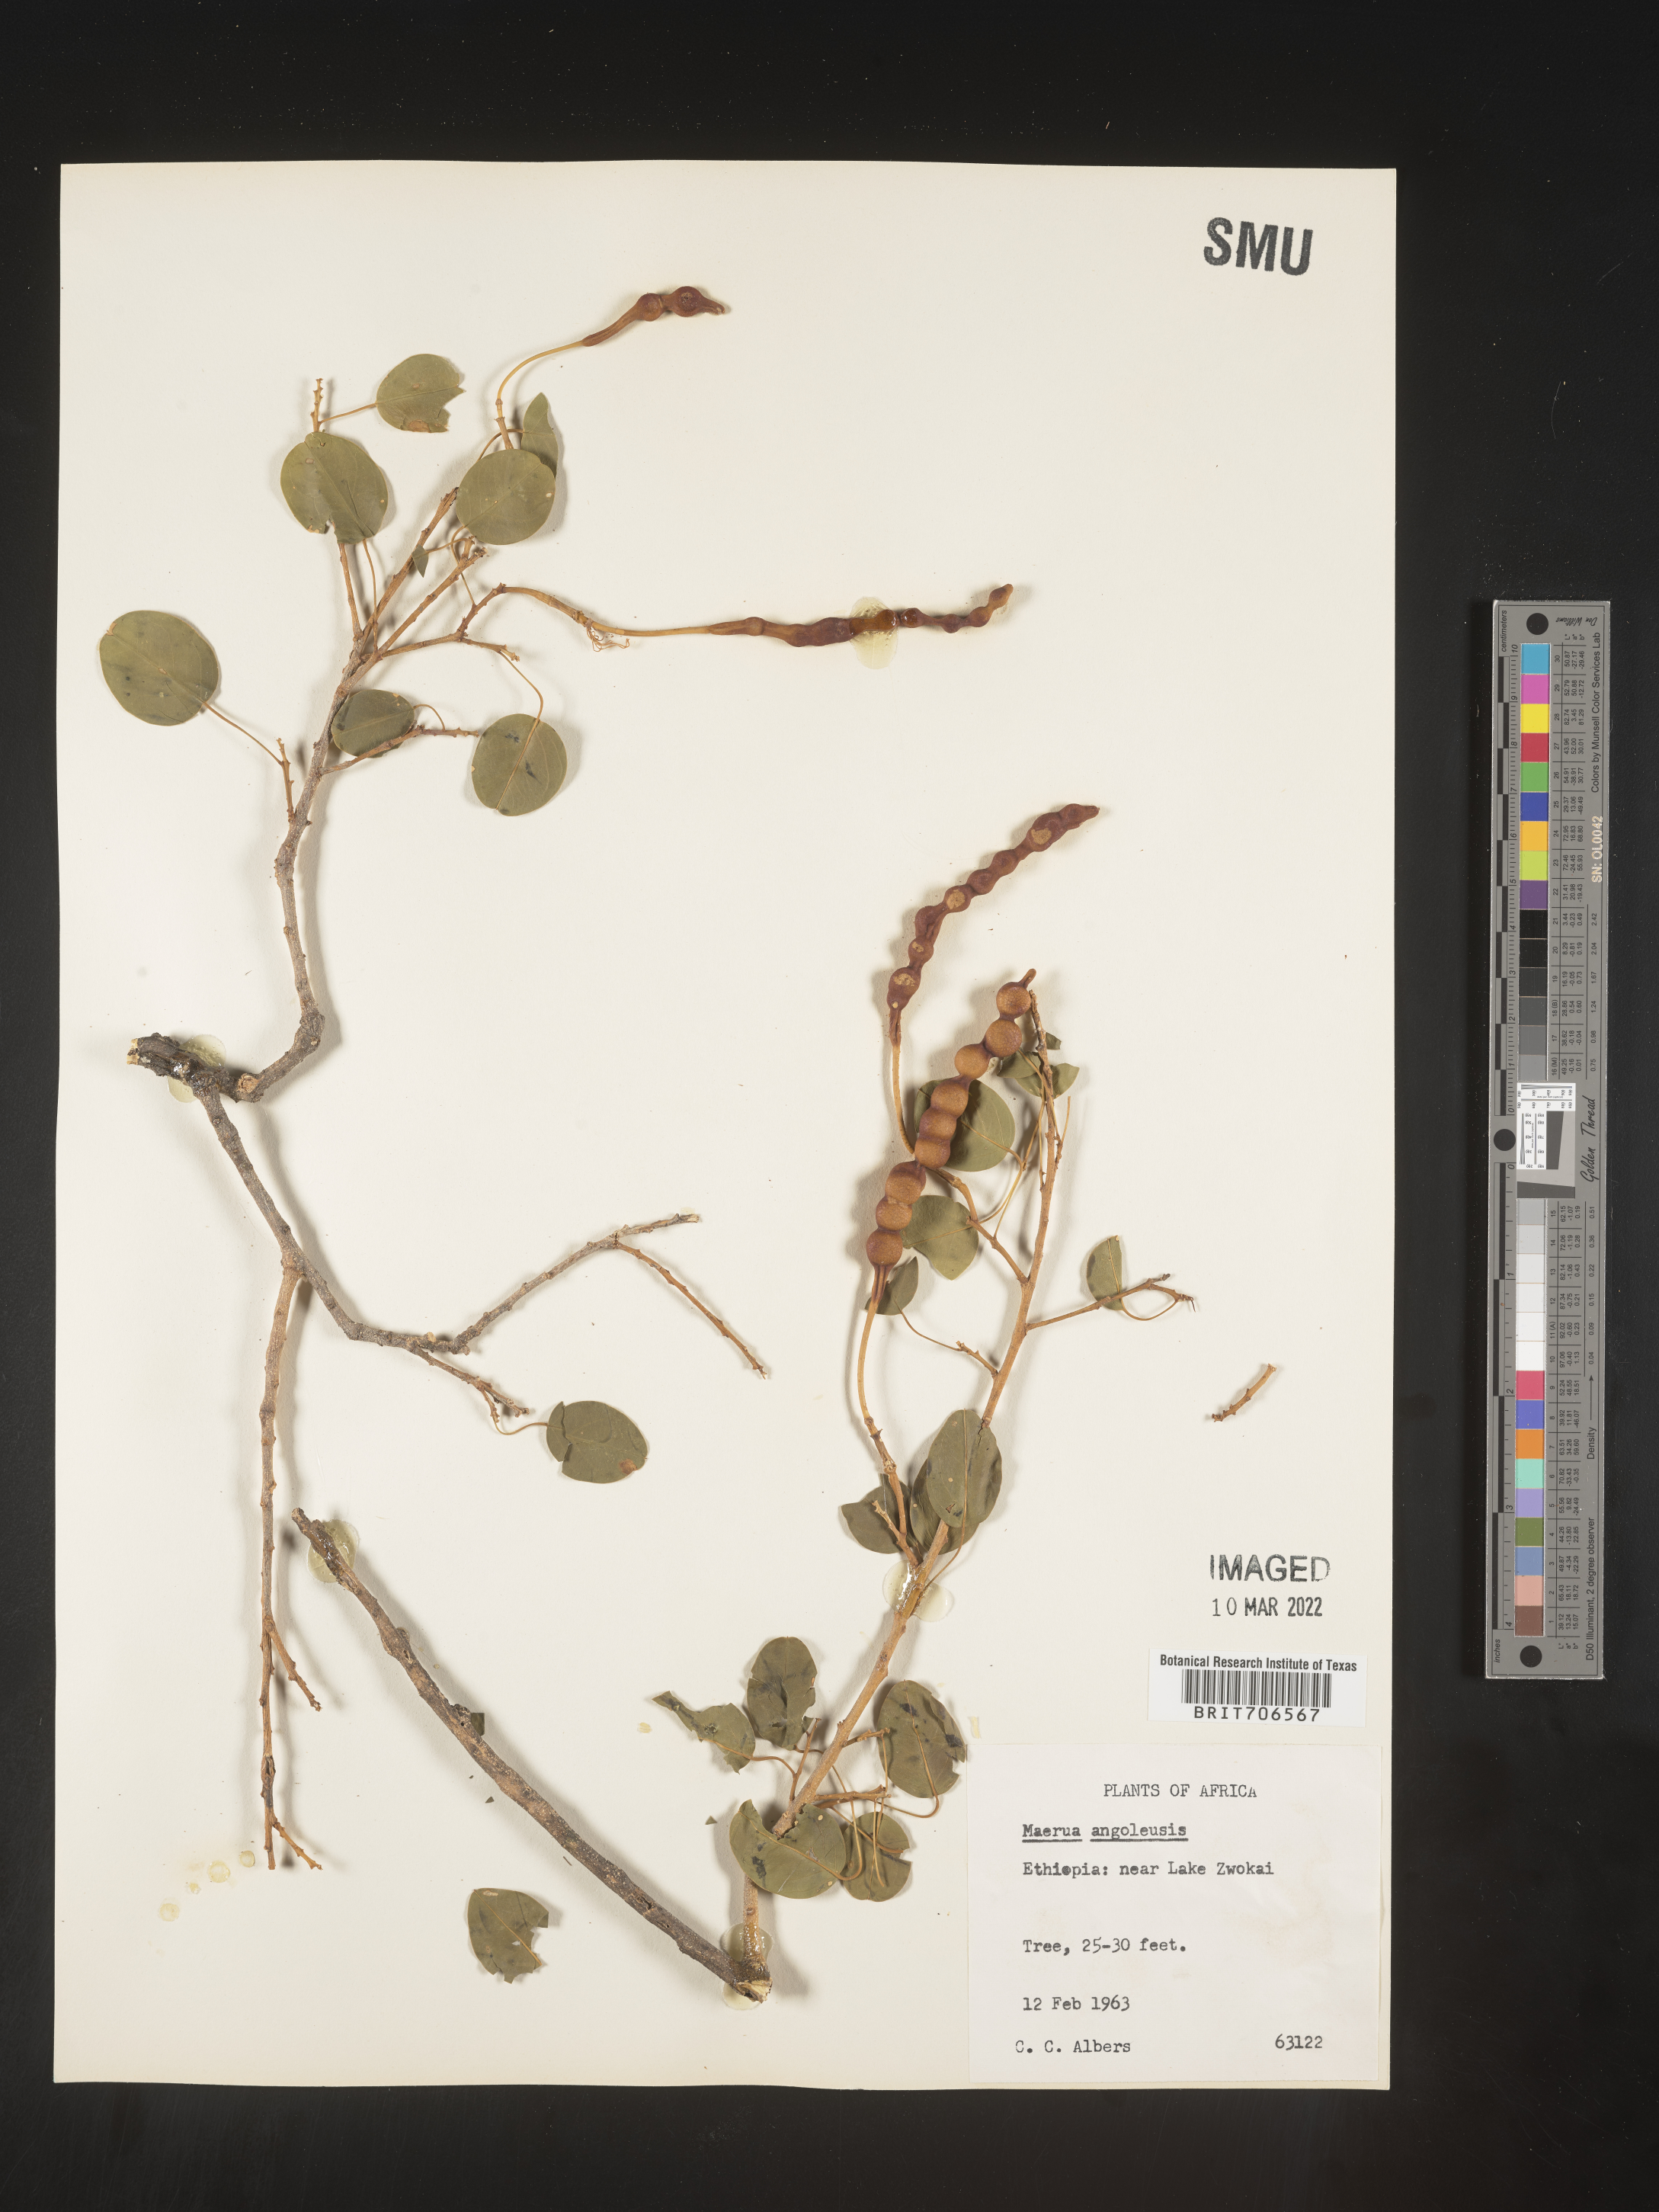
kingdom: Plantae
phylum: Tracheophyta
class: Magnoliopsida
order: Brassicales
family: Capparaceae
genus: Maerua
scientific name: Maerua
